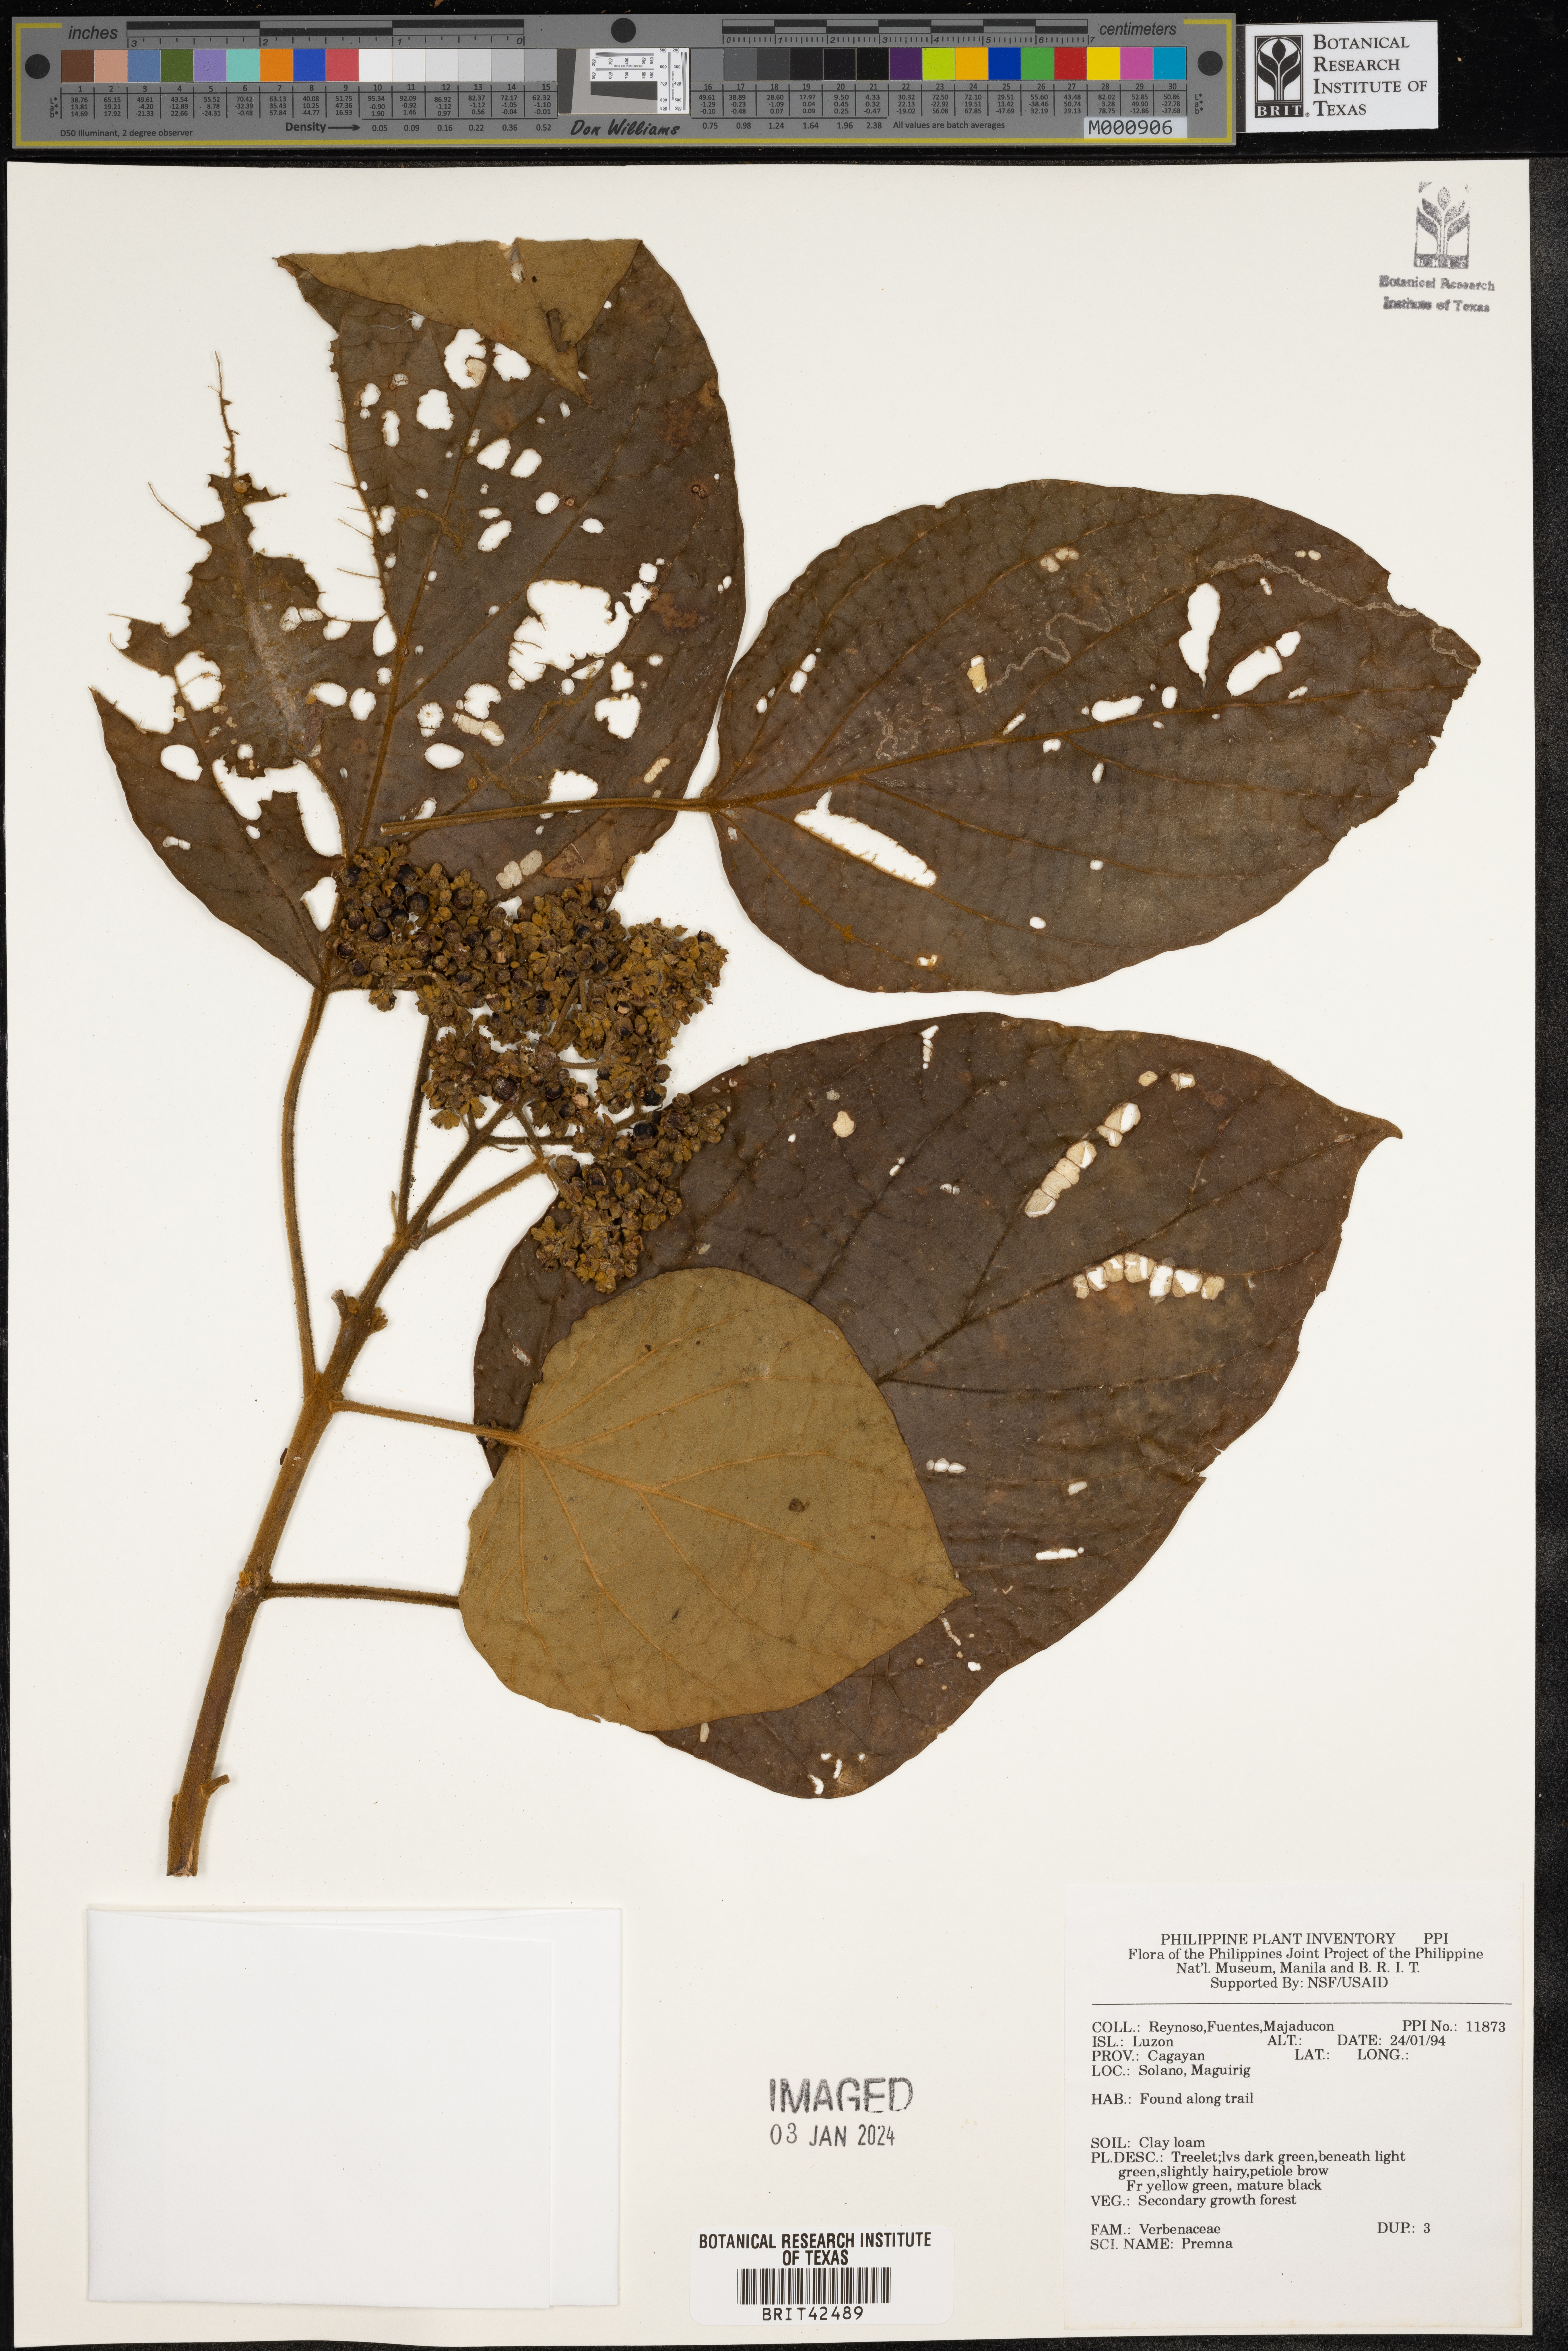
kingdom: Plantae
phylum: Tracheophyta
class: Magnoliopsida
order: Lamiales
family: Lamiaceae
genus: Premna
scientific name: Premna
